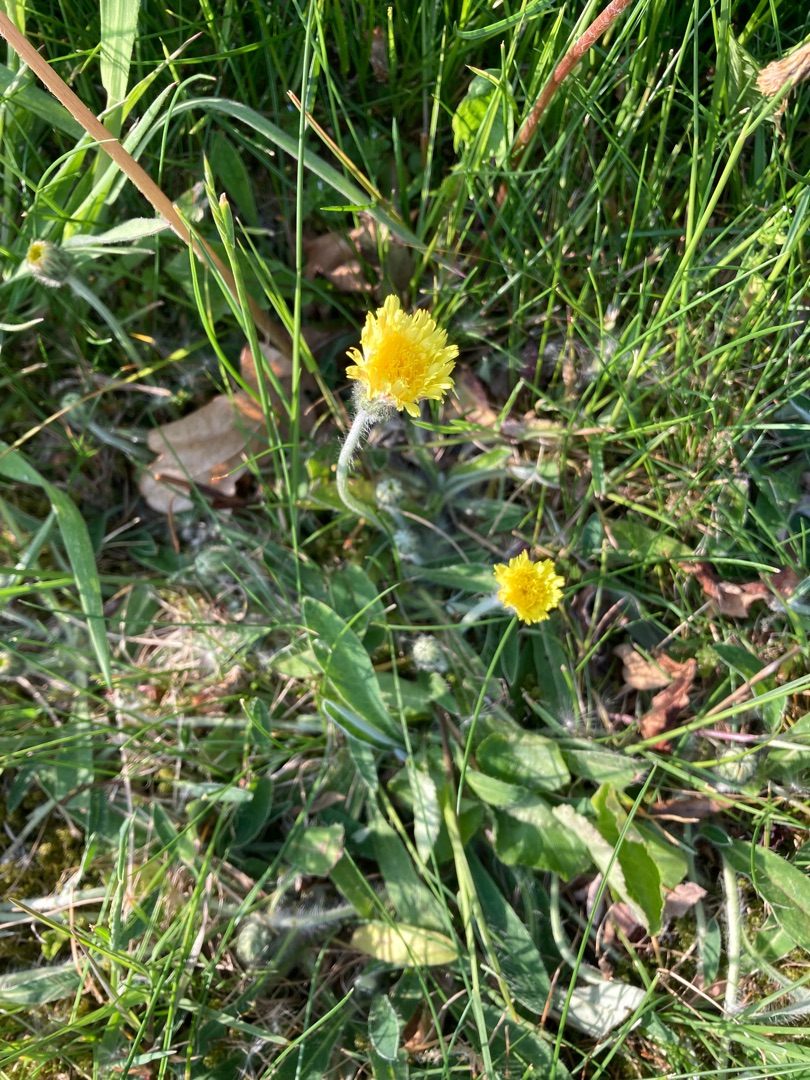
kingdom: Plantae
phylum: Tracheophyta
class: Magnoliopsida
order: Asterales
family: Asteraceae
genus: Pilosella
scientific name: Pilosella officinarum
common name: Håret høgeurt
